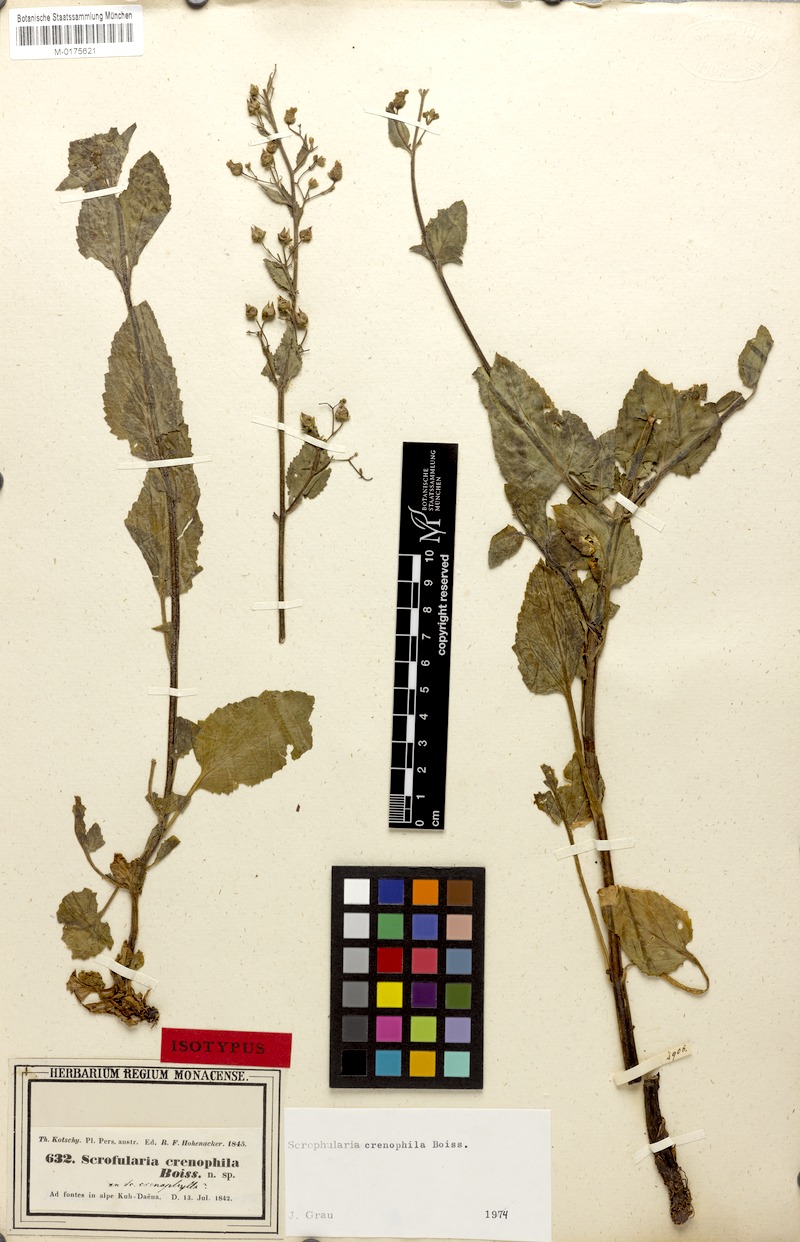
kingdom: Plantae
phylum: Tracheophyta
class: Magnoliopsida
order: Lamiales
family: Scrophulariaceae
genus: Scrophularia
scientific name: Scrophularia crenophila
